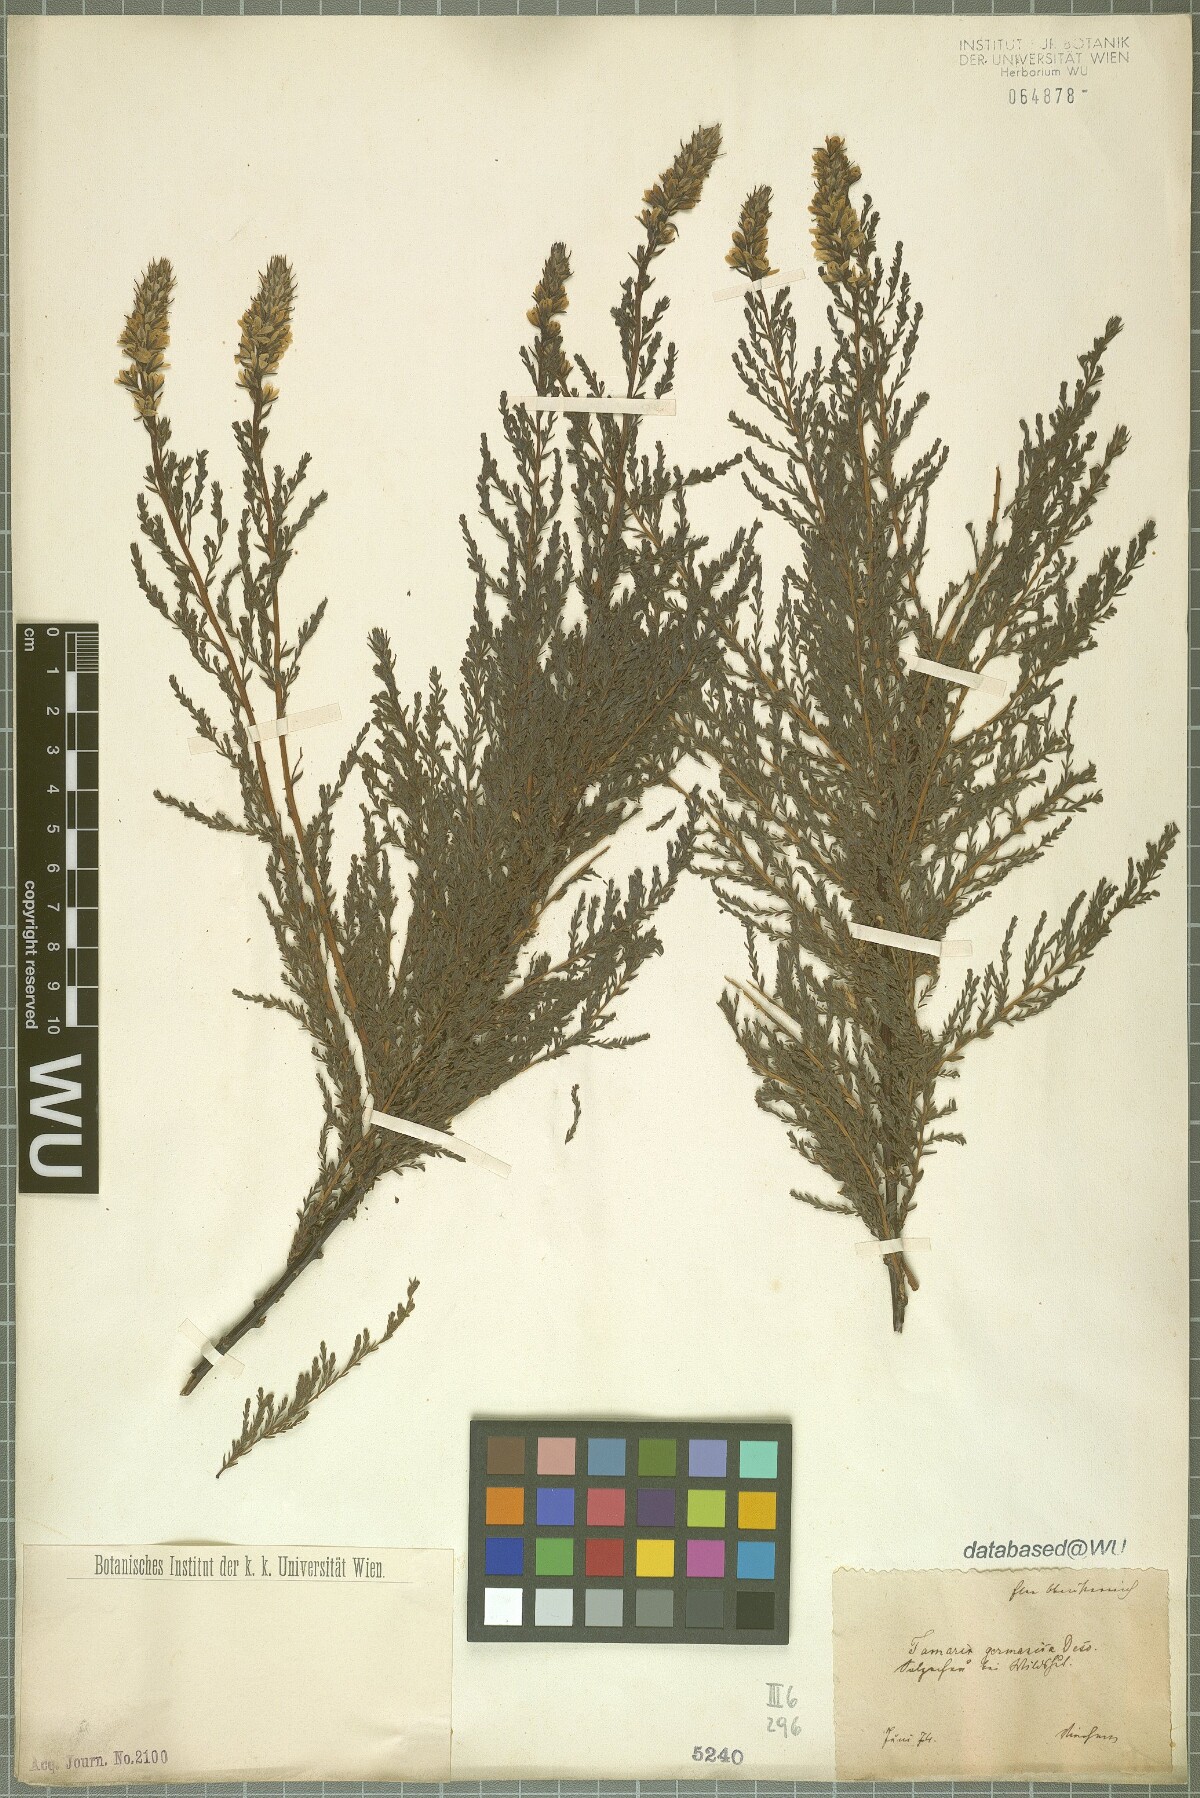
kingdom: Plantae
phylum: Tracheophyta
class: Magnoliopsida
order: Caryophyllales
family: Tamaricaceae
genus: Myricaria
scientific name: Myricaria germanica
